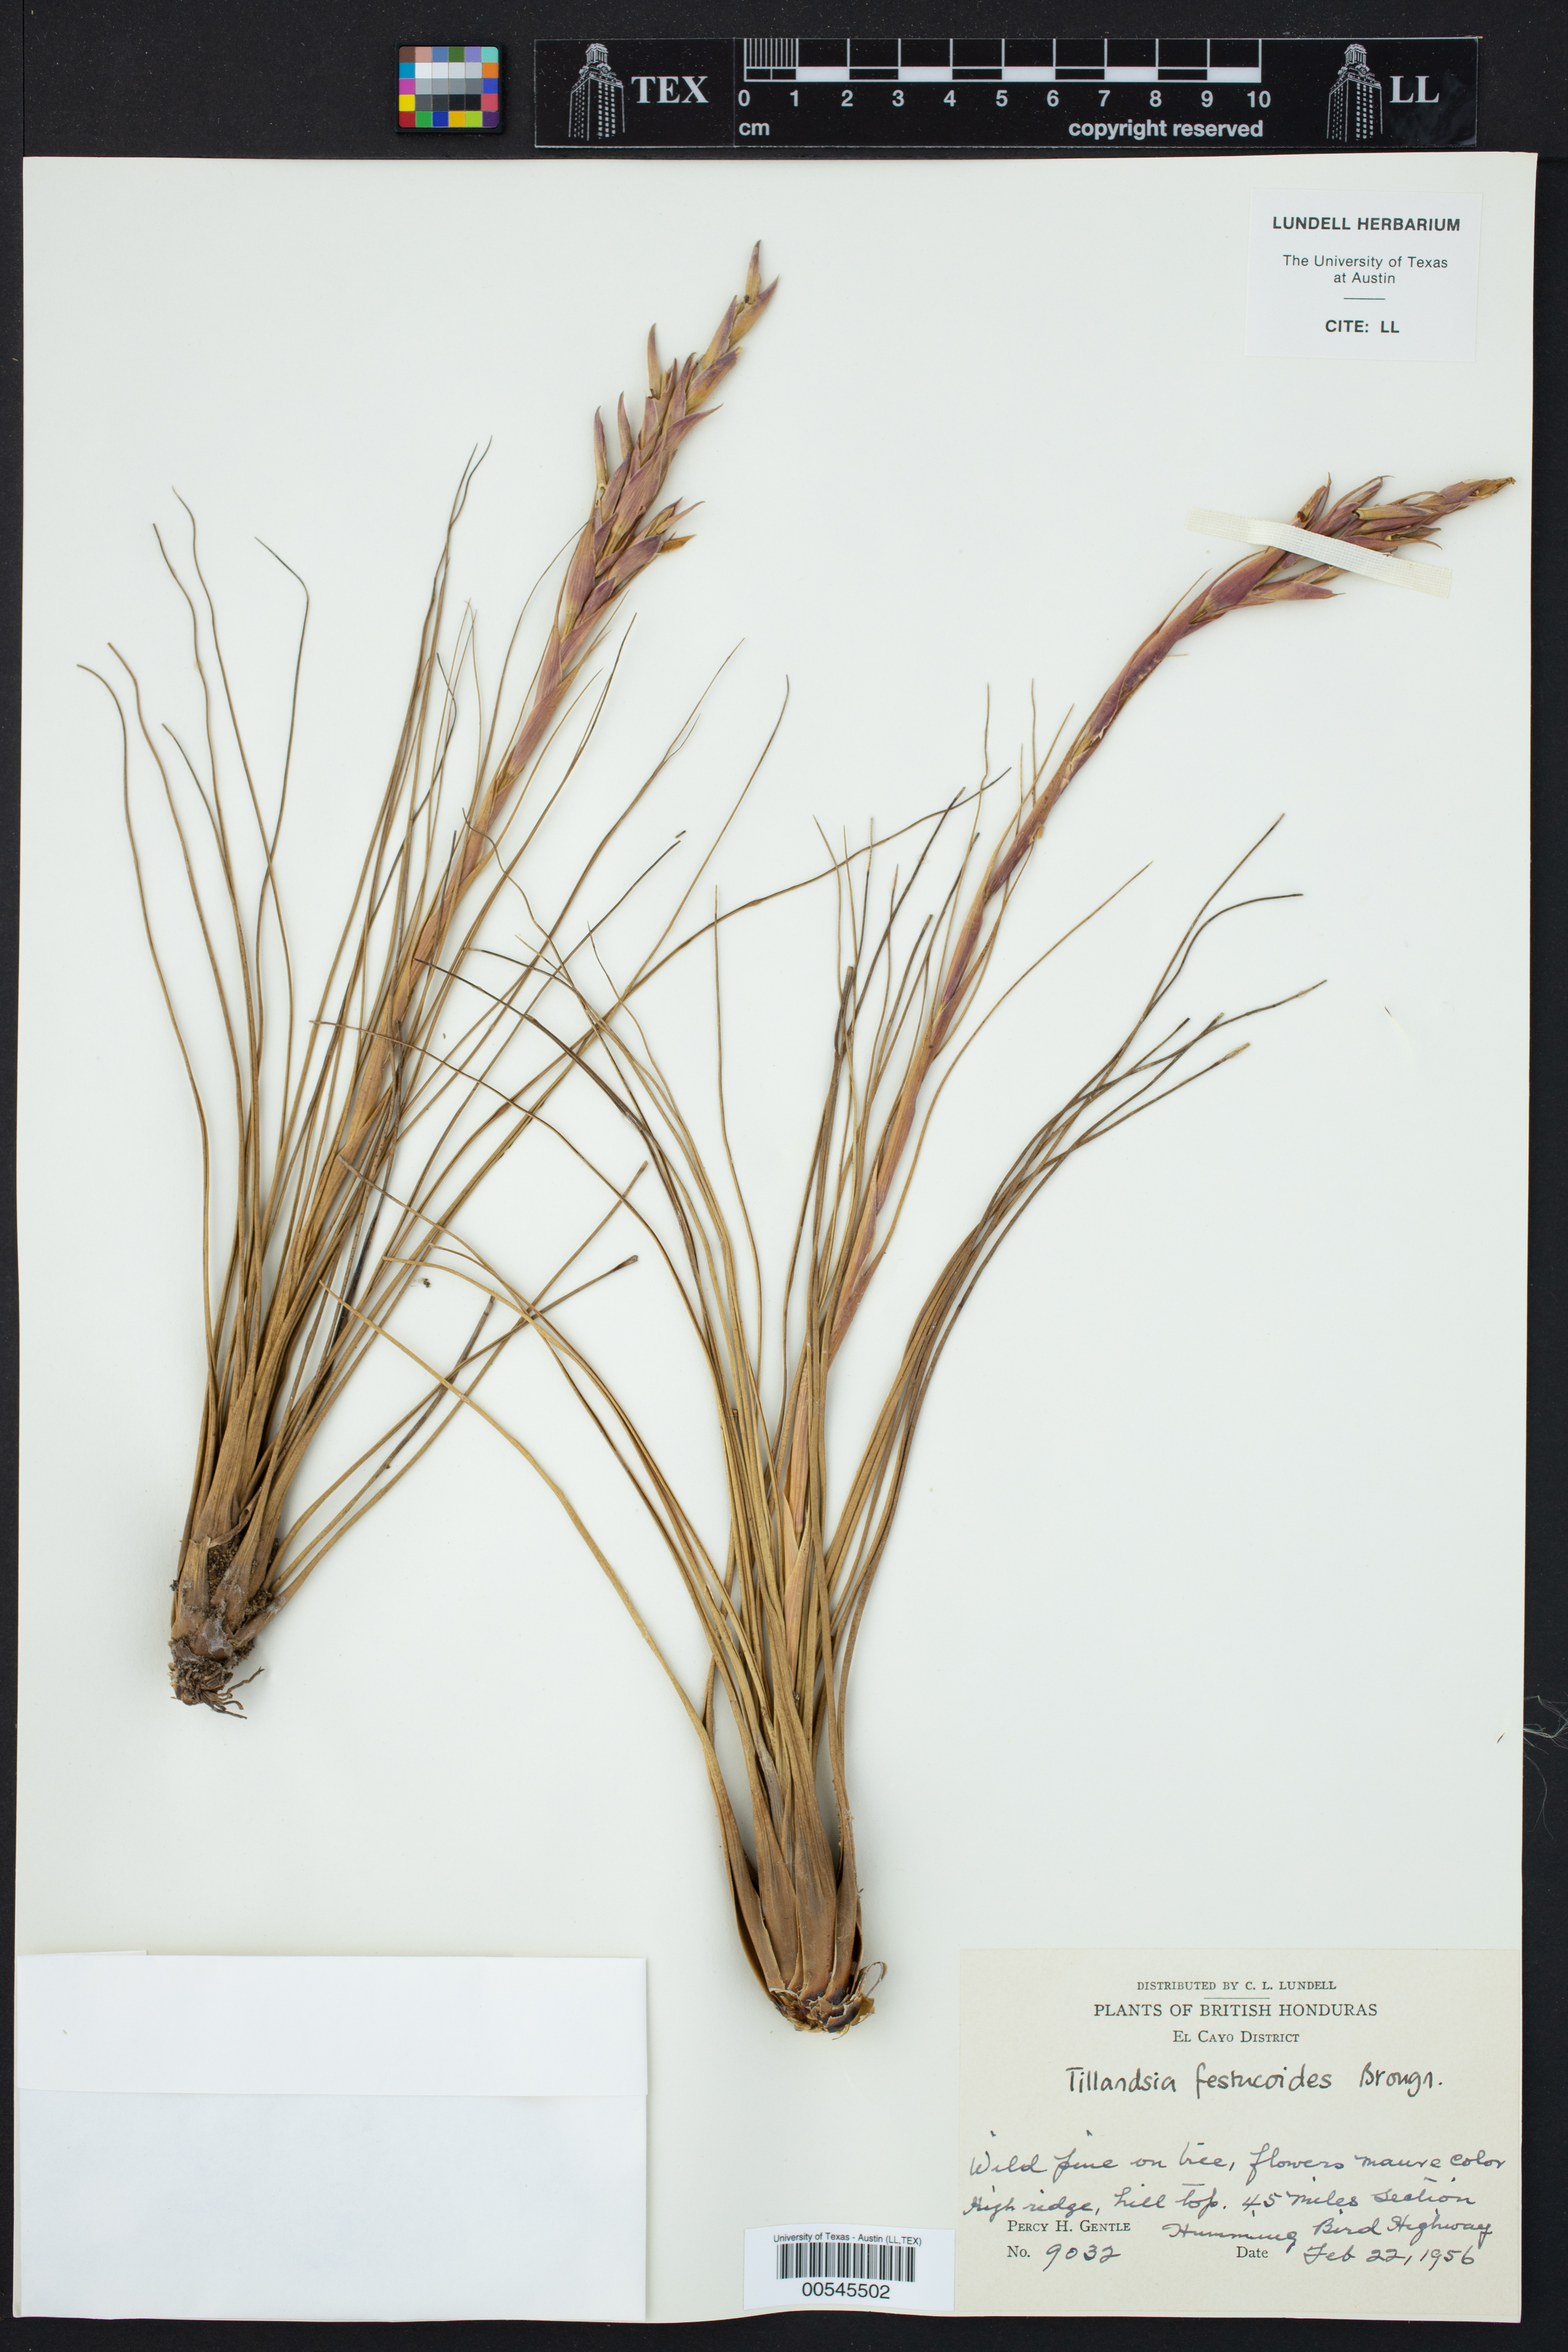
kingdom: Plantae
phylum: Tracheophyta
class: Liliopsida
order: Poales
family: Bromeliaceae
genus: Tillandsia
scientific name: Tillandsia festucoides
